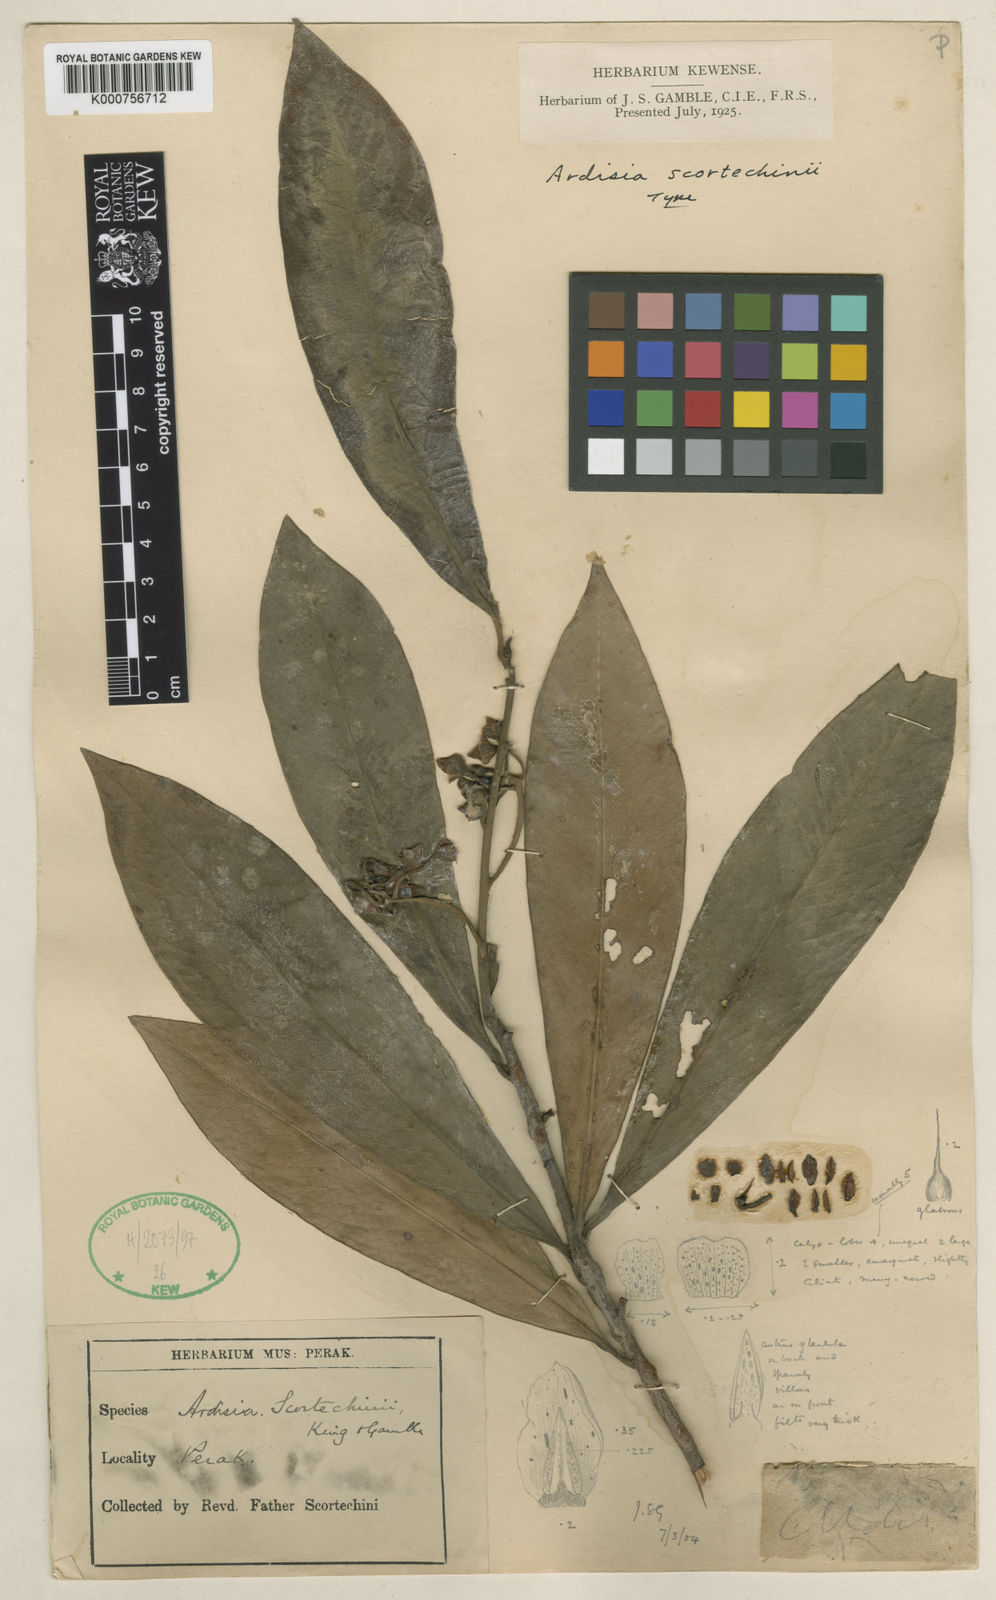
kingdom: Plantae
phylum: Tracheophyta
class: Magnoliopsida
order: Ericales
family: Primulaceae
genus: Ardisia
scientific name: Ardisia scortechinii
